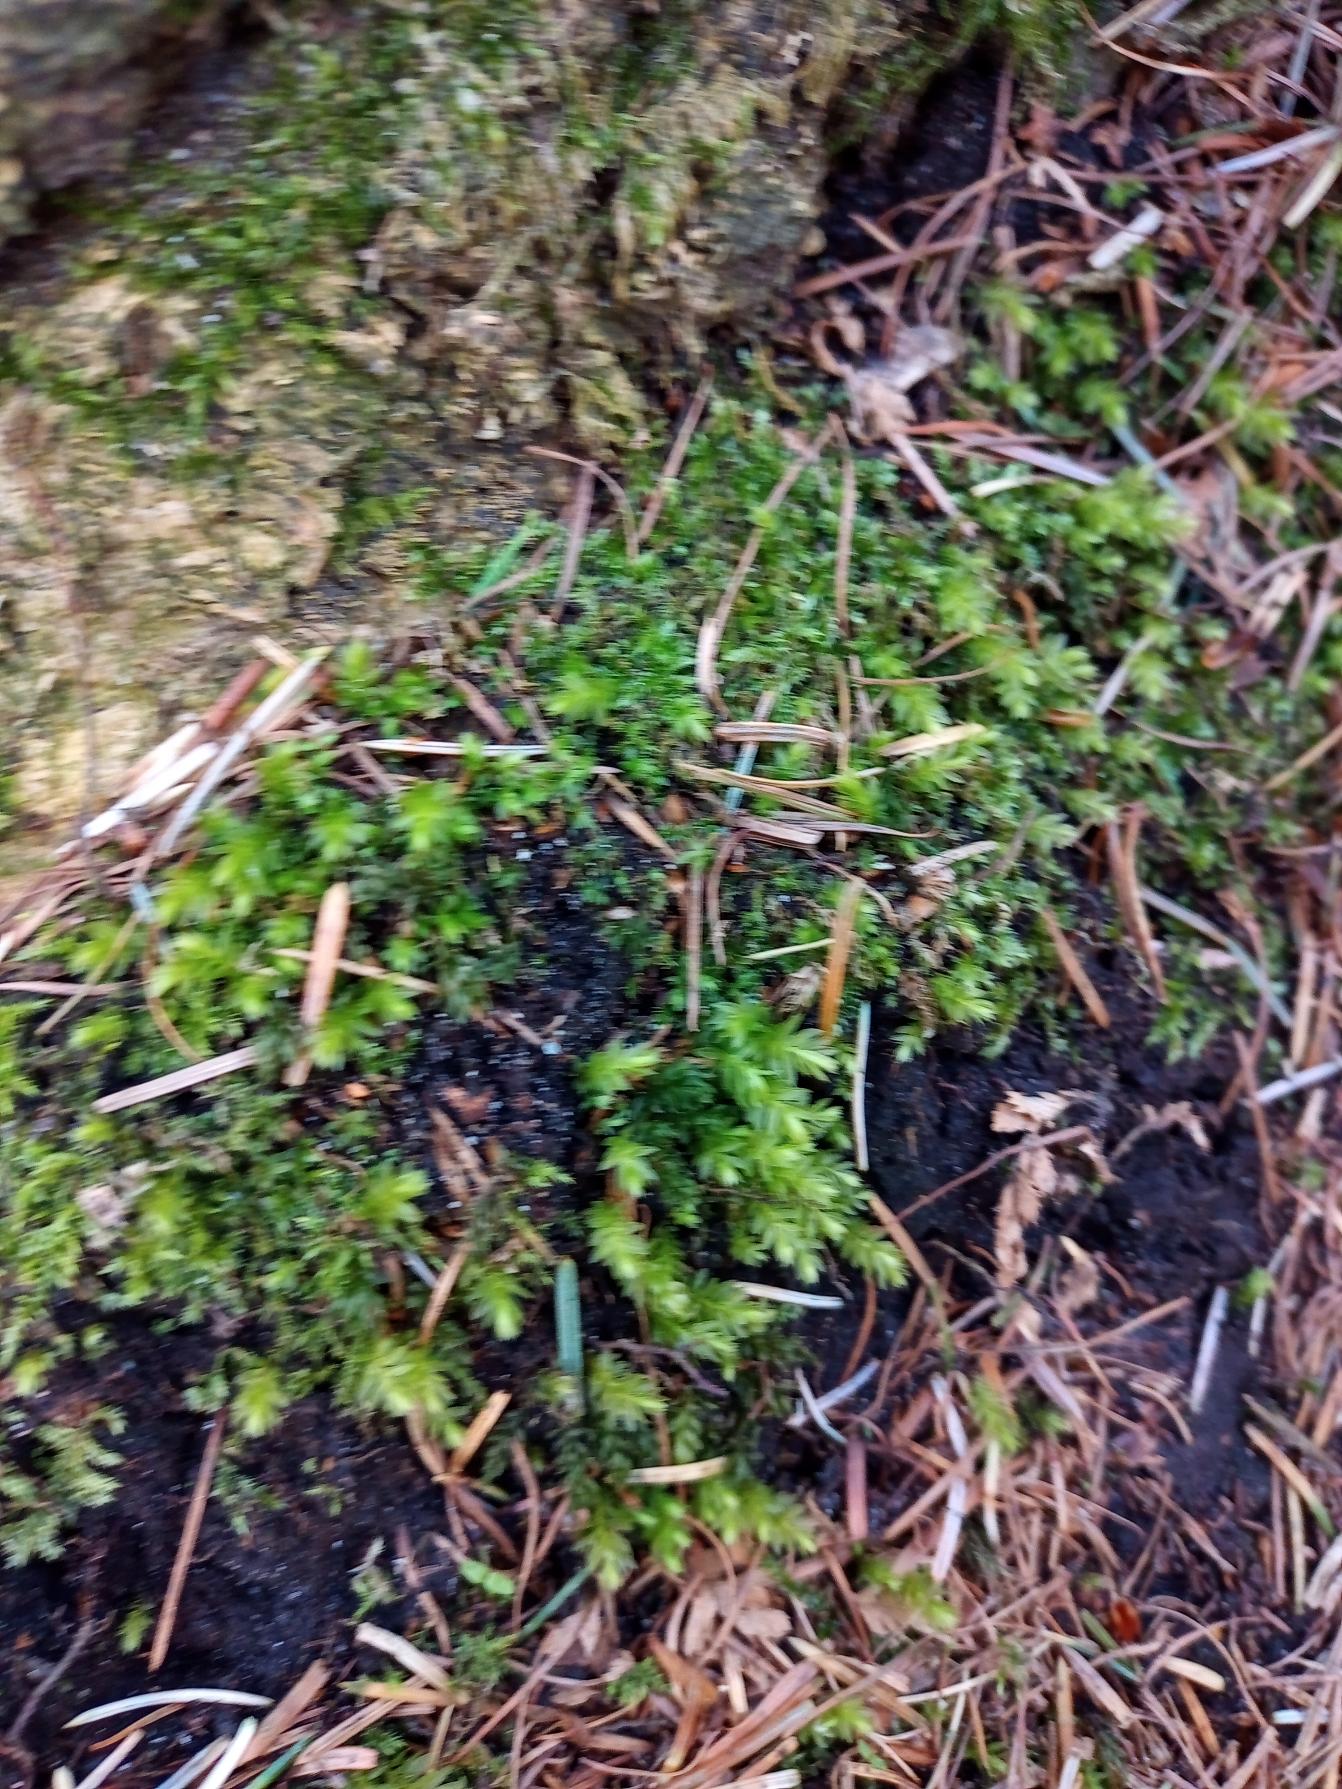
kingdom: Plantae
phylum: Bryophyta
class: Bryopsida
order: Bryales
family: Mniaceae
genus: Mnium
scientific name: Mnium hornum
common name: Brunfiltet stjernemos
